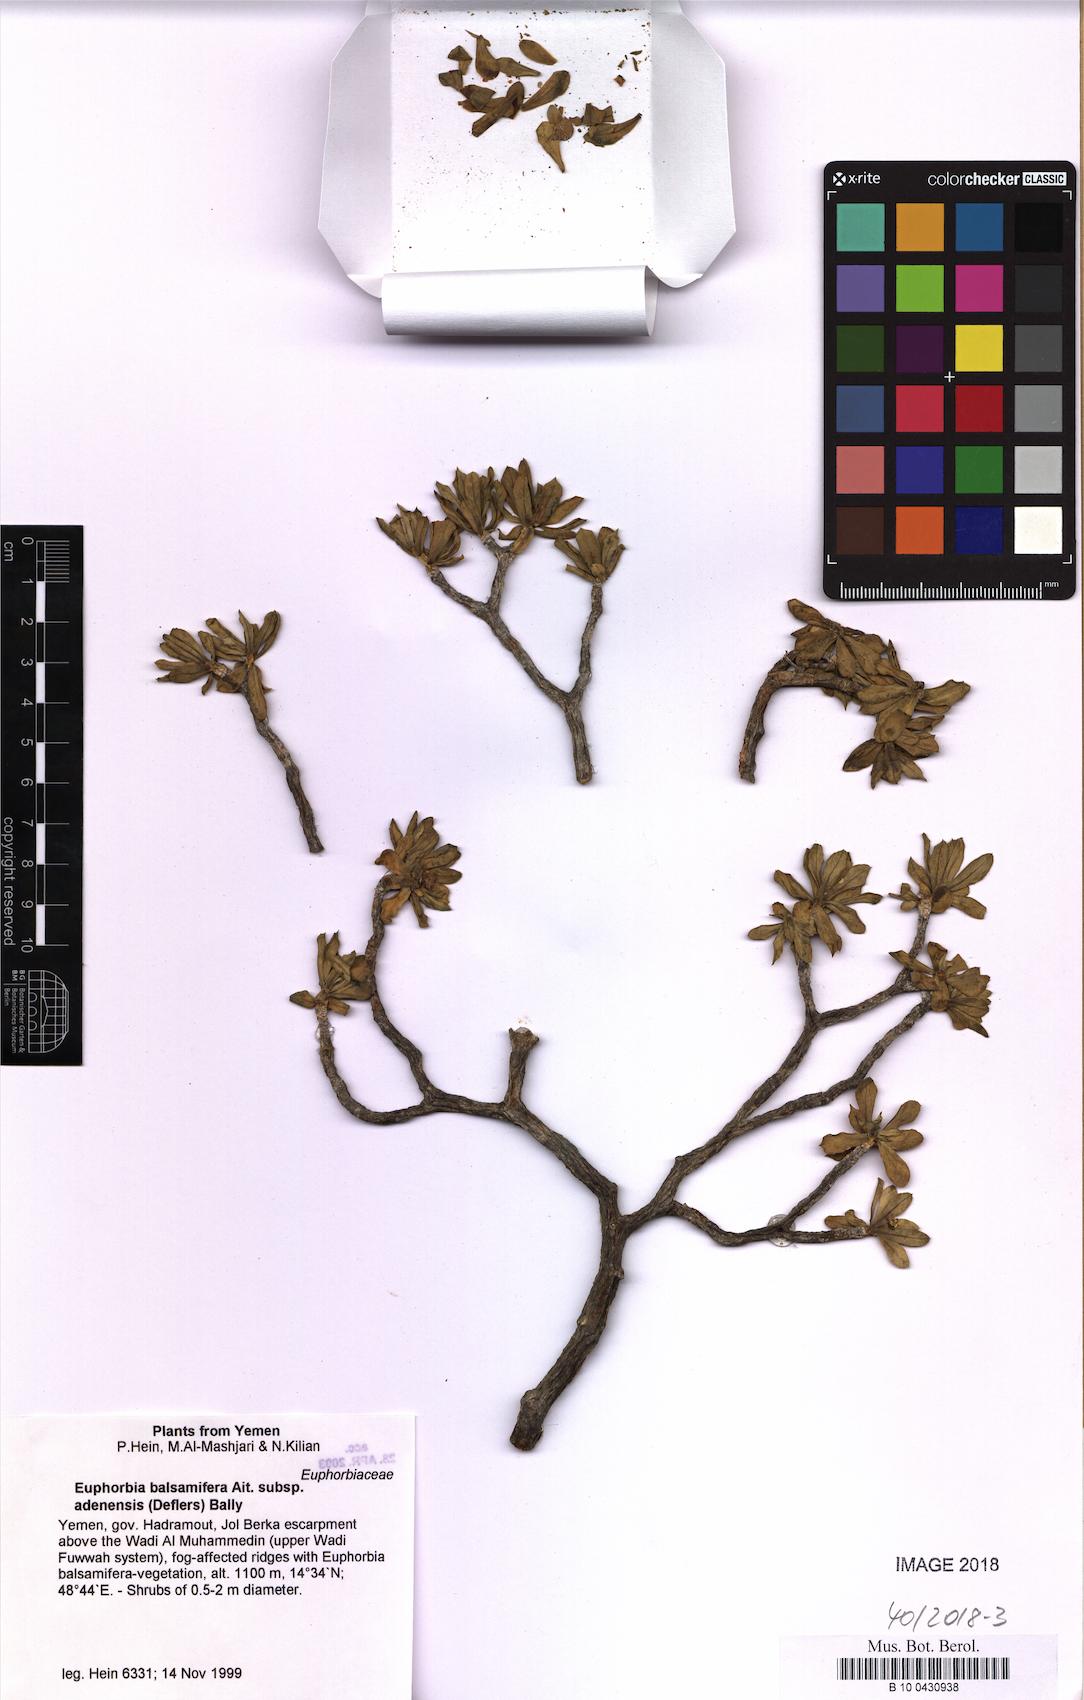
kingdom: Plantae
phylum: Tracheophyta
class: Magnoliopsida
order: Malpighiales
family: Euphorbiaceae
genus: Euphorbia
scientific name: Euphorbia adenensis
